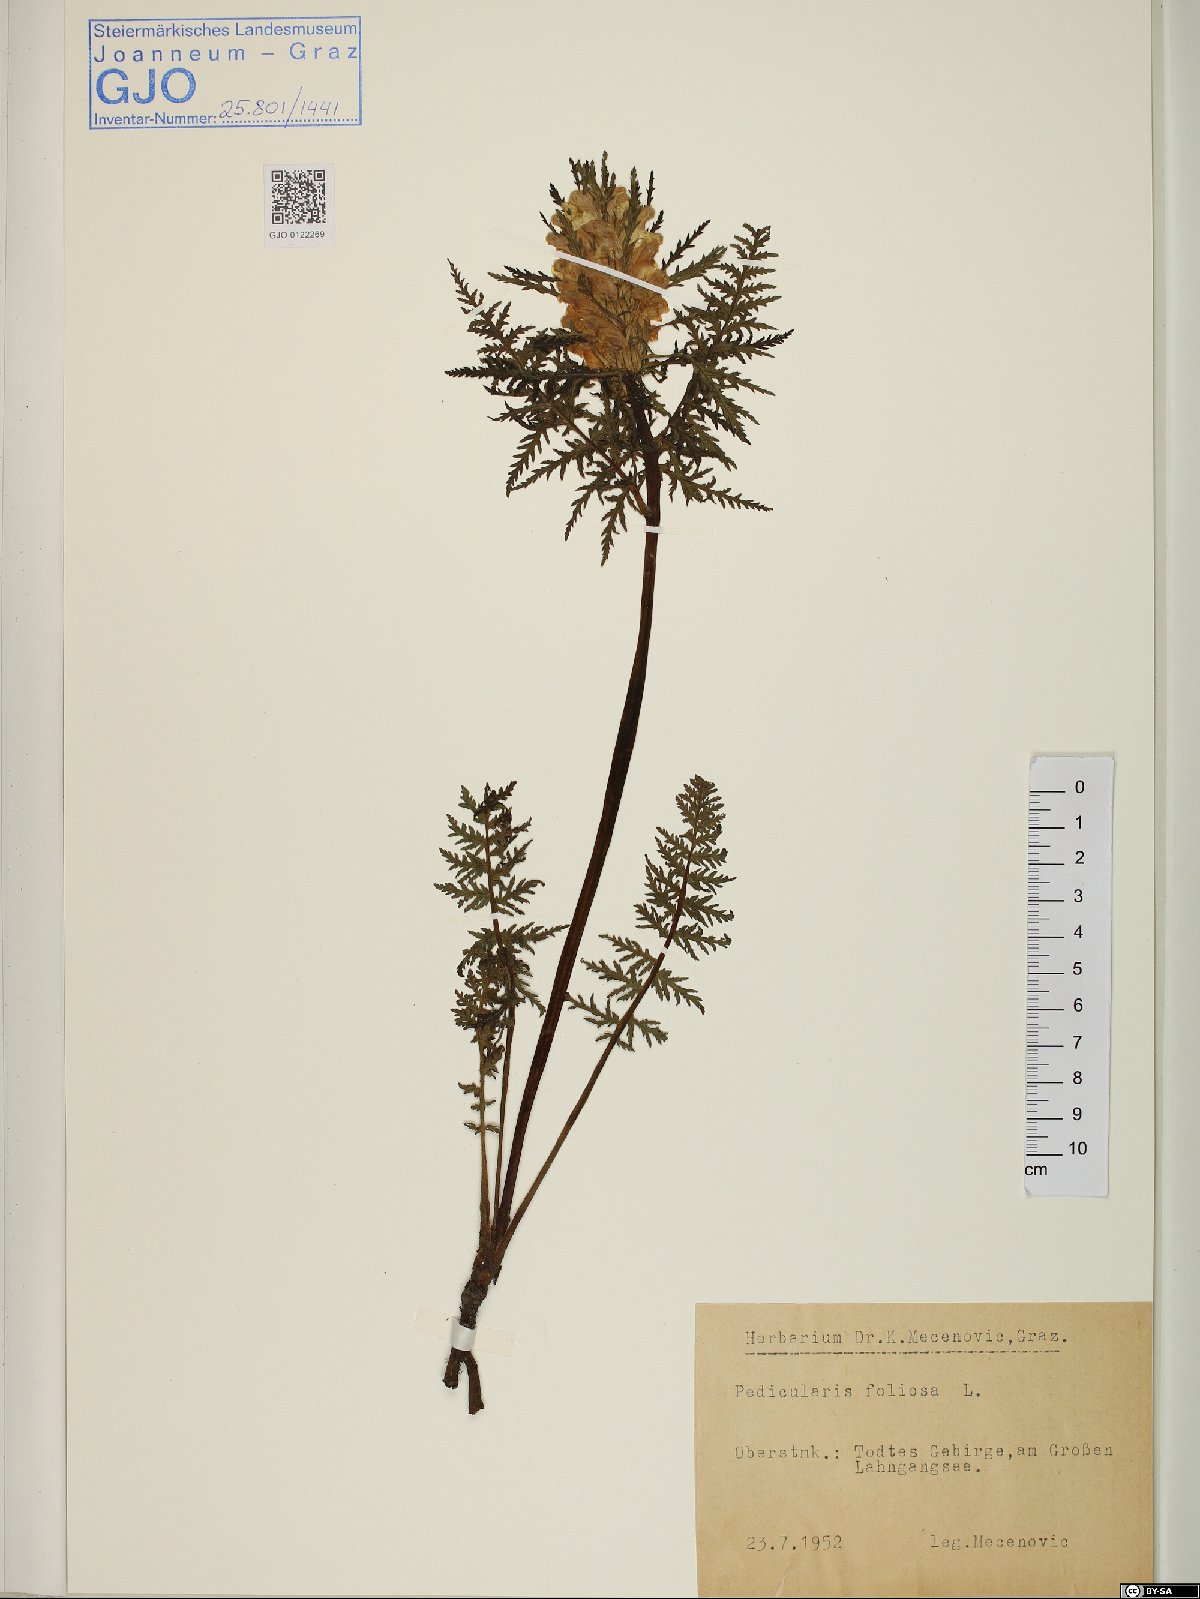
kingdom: Plantae
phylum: Tracheophyta
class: Magnoliopsida
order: Lamiales
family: Orobanchaceae
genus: Pedicularis
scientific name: Pedicularis foliosa
